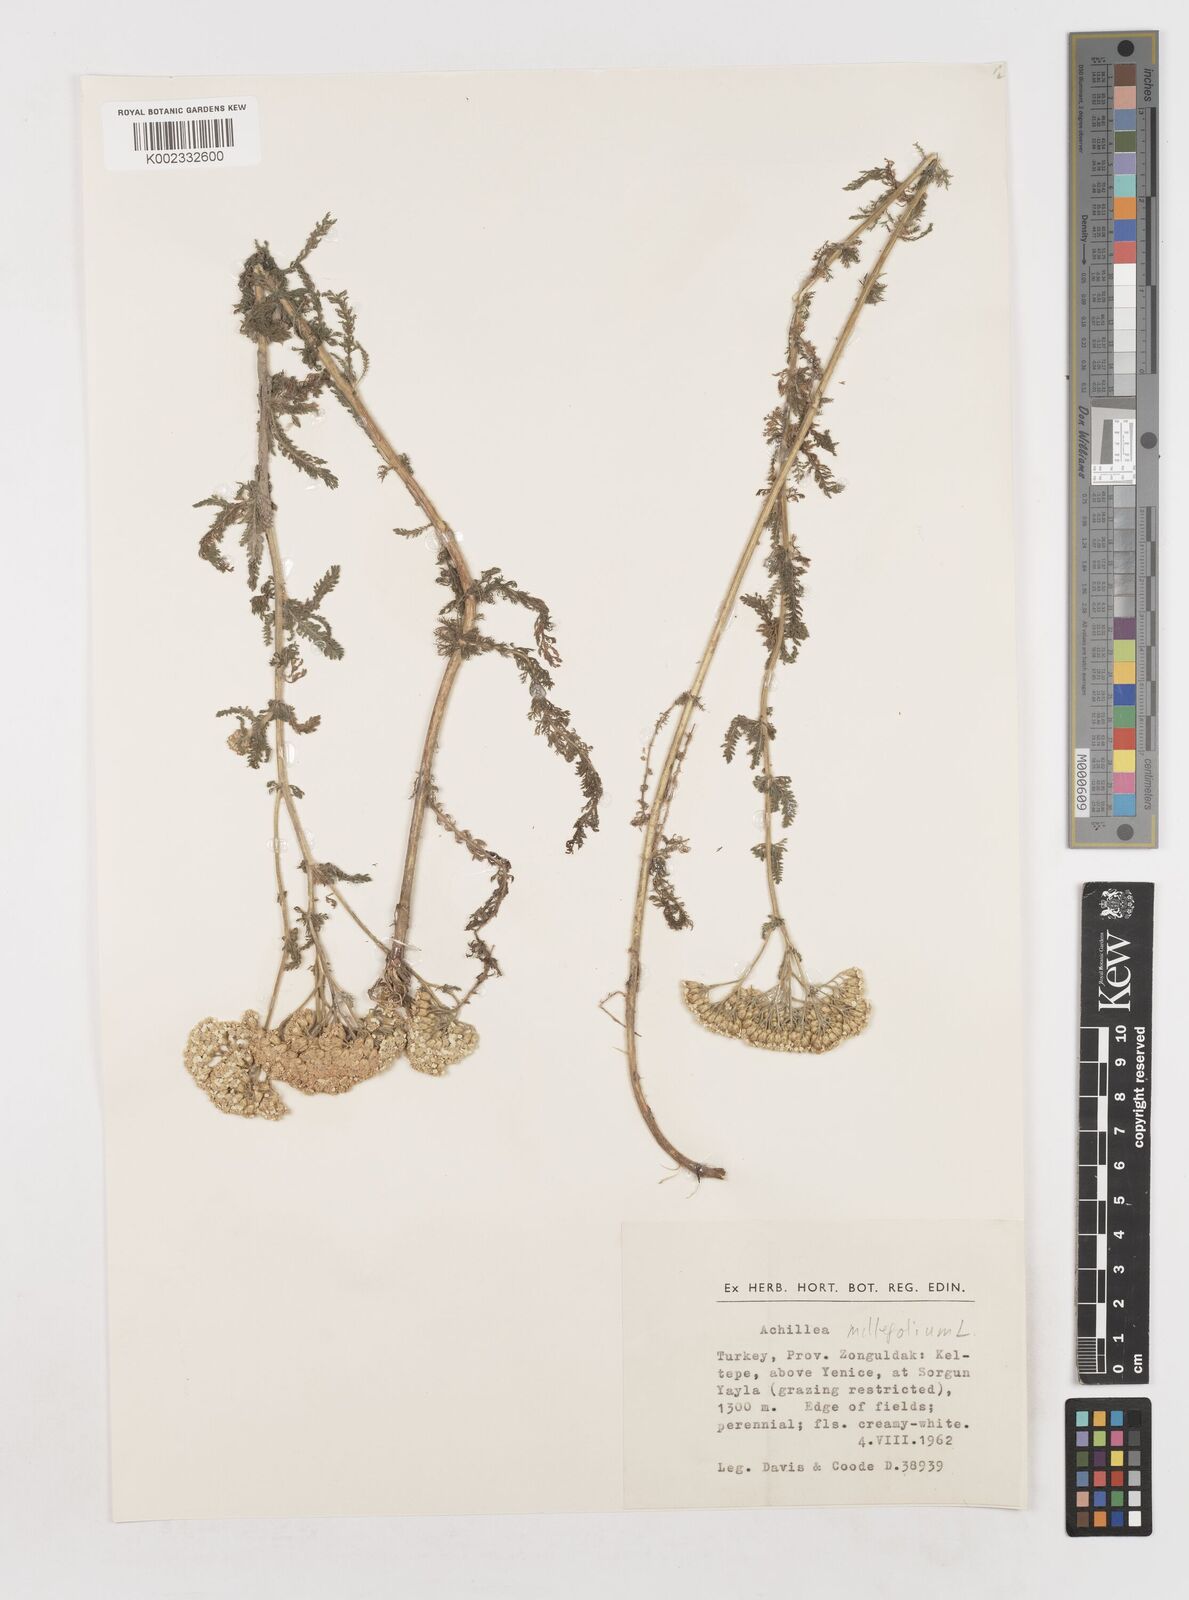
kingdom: Plantae
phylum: Tracheophyta
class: Magnoliopsida
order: Asterales
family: Asteraceae
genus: Achillea
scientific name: Achillea millefolium
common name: Yarrow
